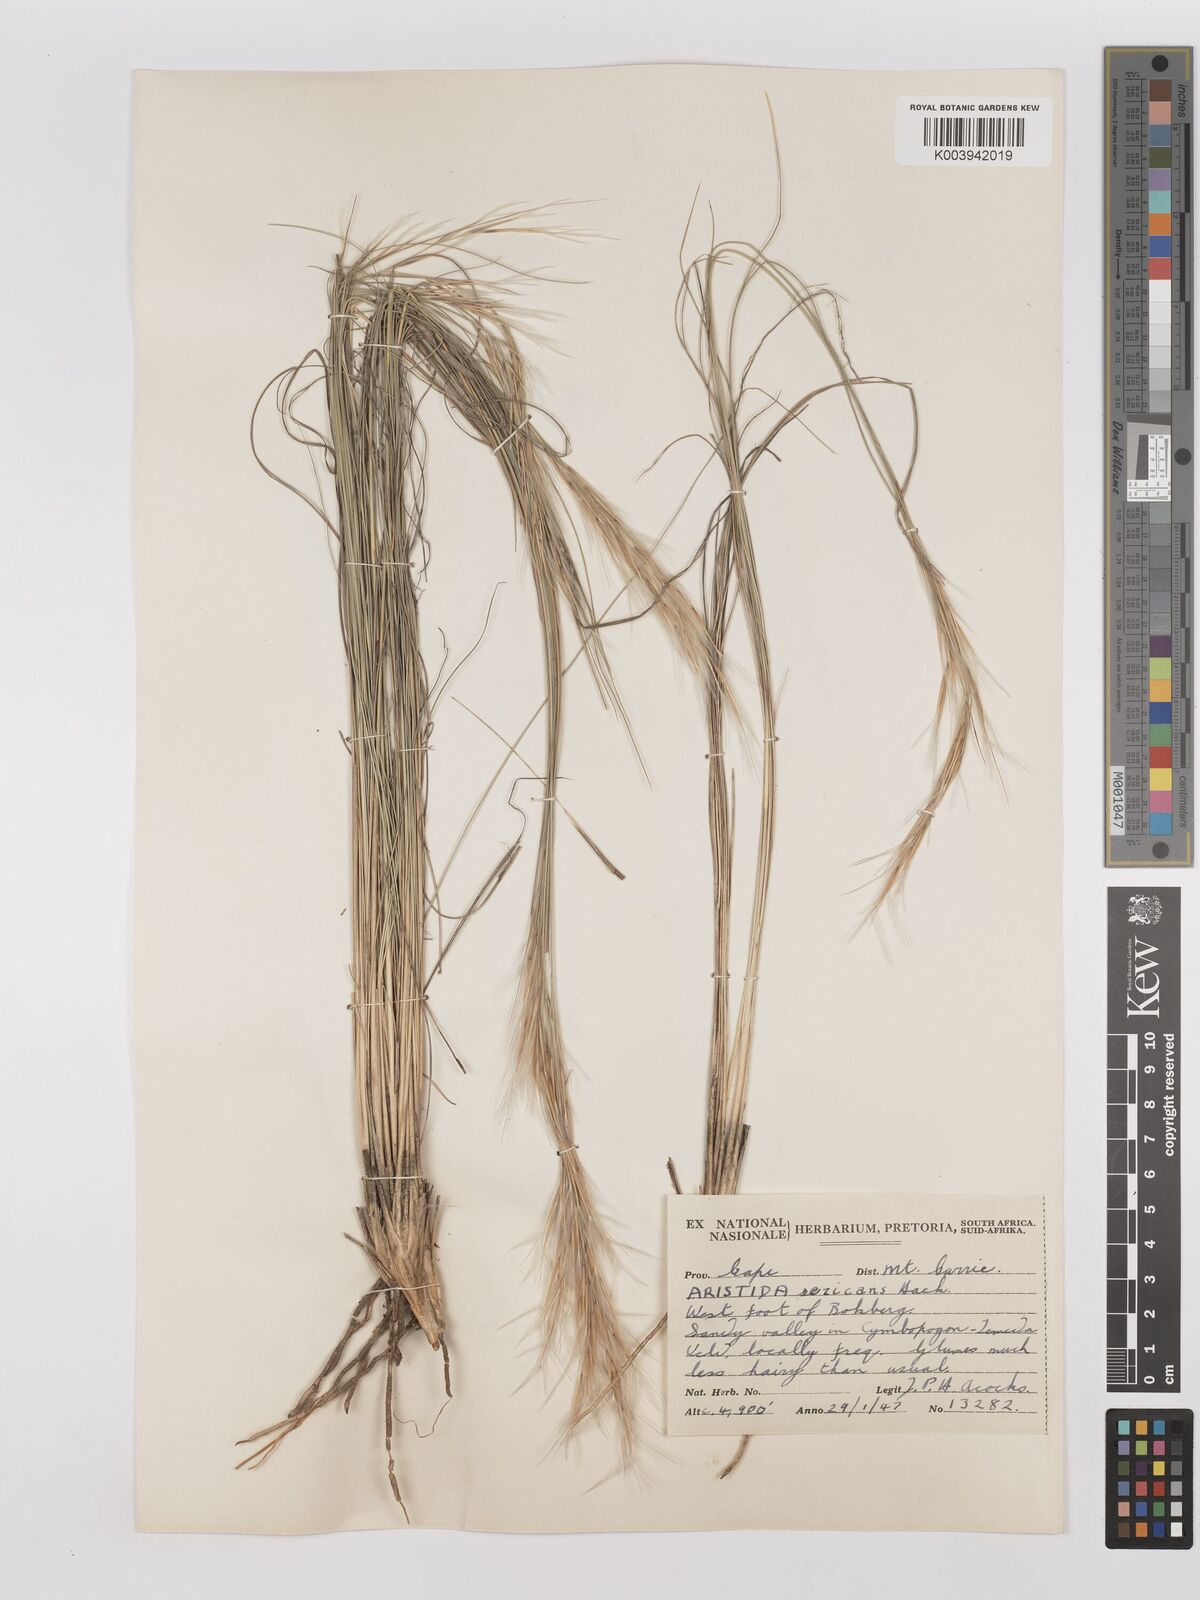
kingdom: Plantae
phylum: Tracheophyta
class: Liliopsida
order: Poales
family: Poaceae
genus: Stipagrostis
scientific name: Stipagrostis zeyheri
